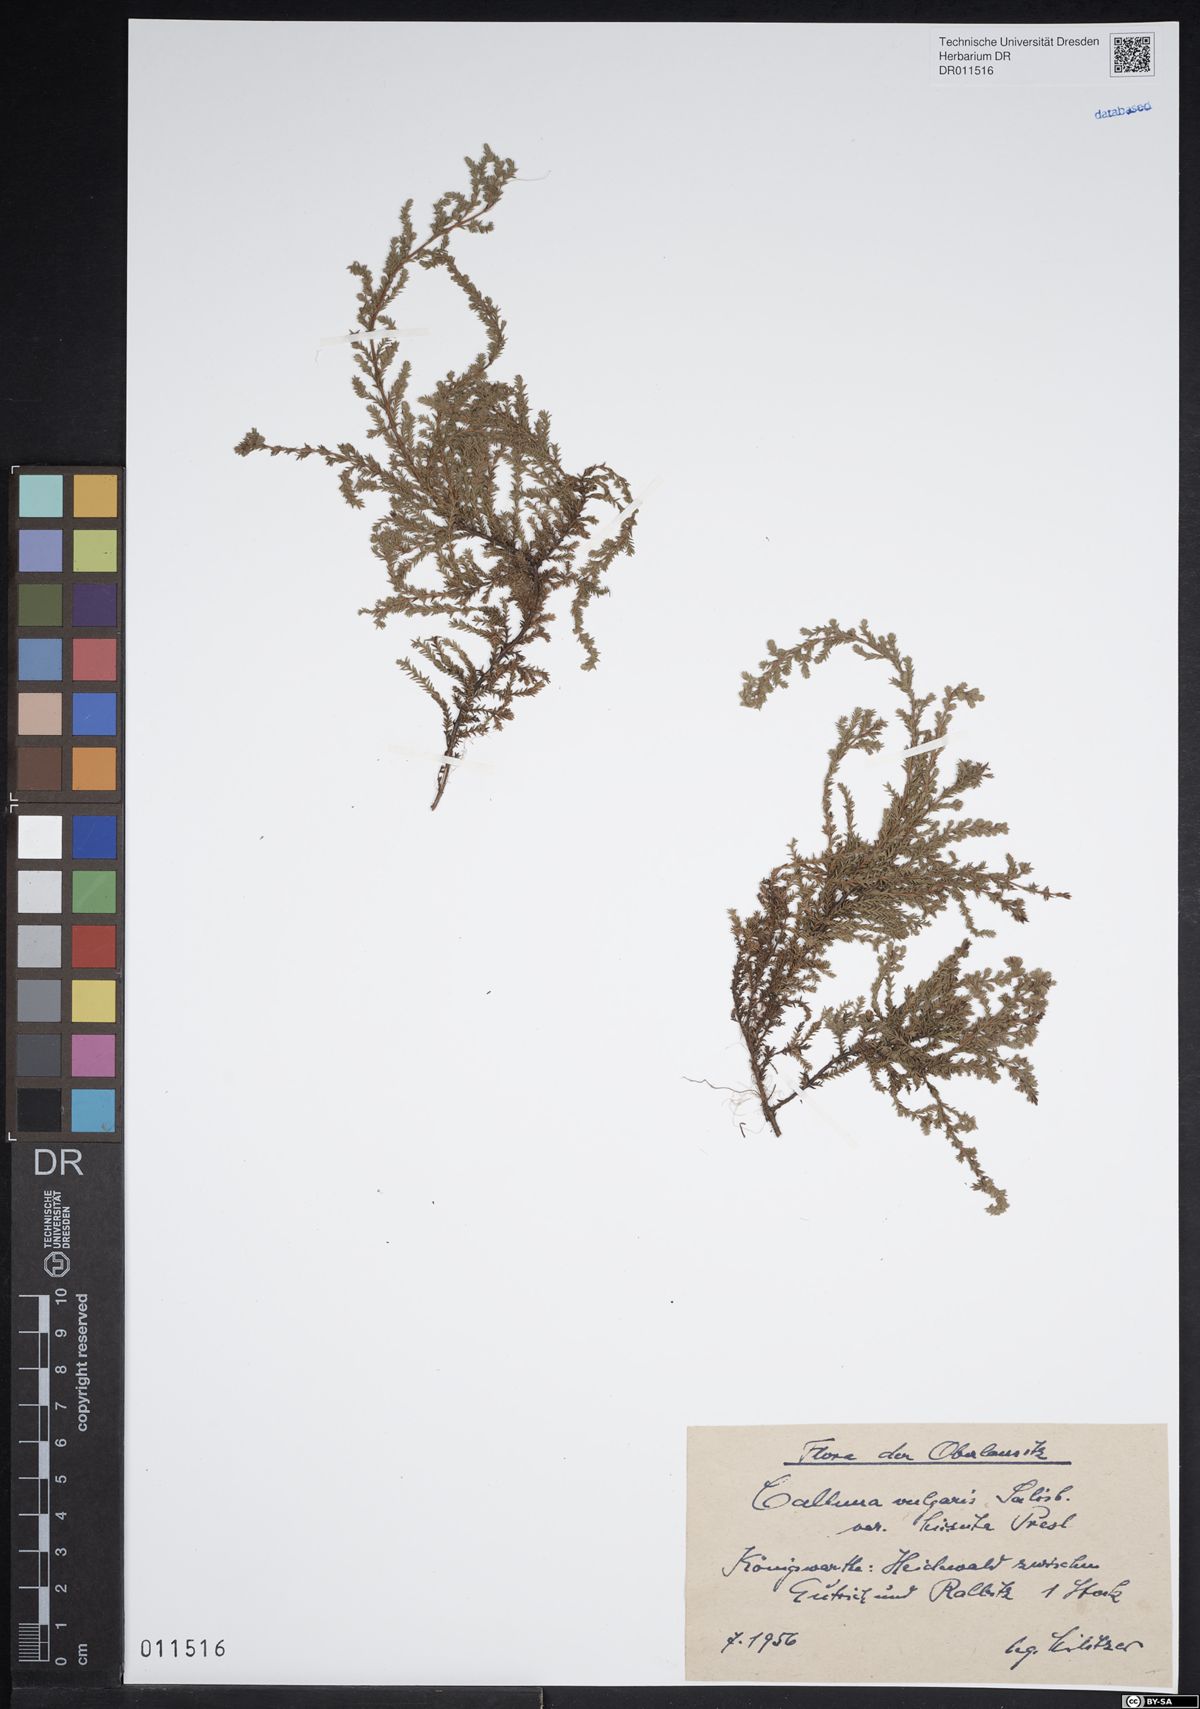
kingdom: Plantae
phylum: Tracheophyta
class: Magnoliopsida
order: Ericales
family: Ericaceae
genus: Calluna
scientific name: Calluna vulgaris
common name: Heather
